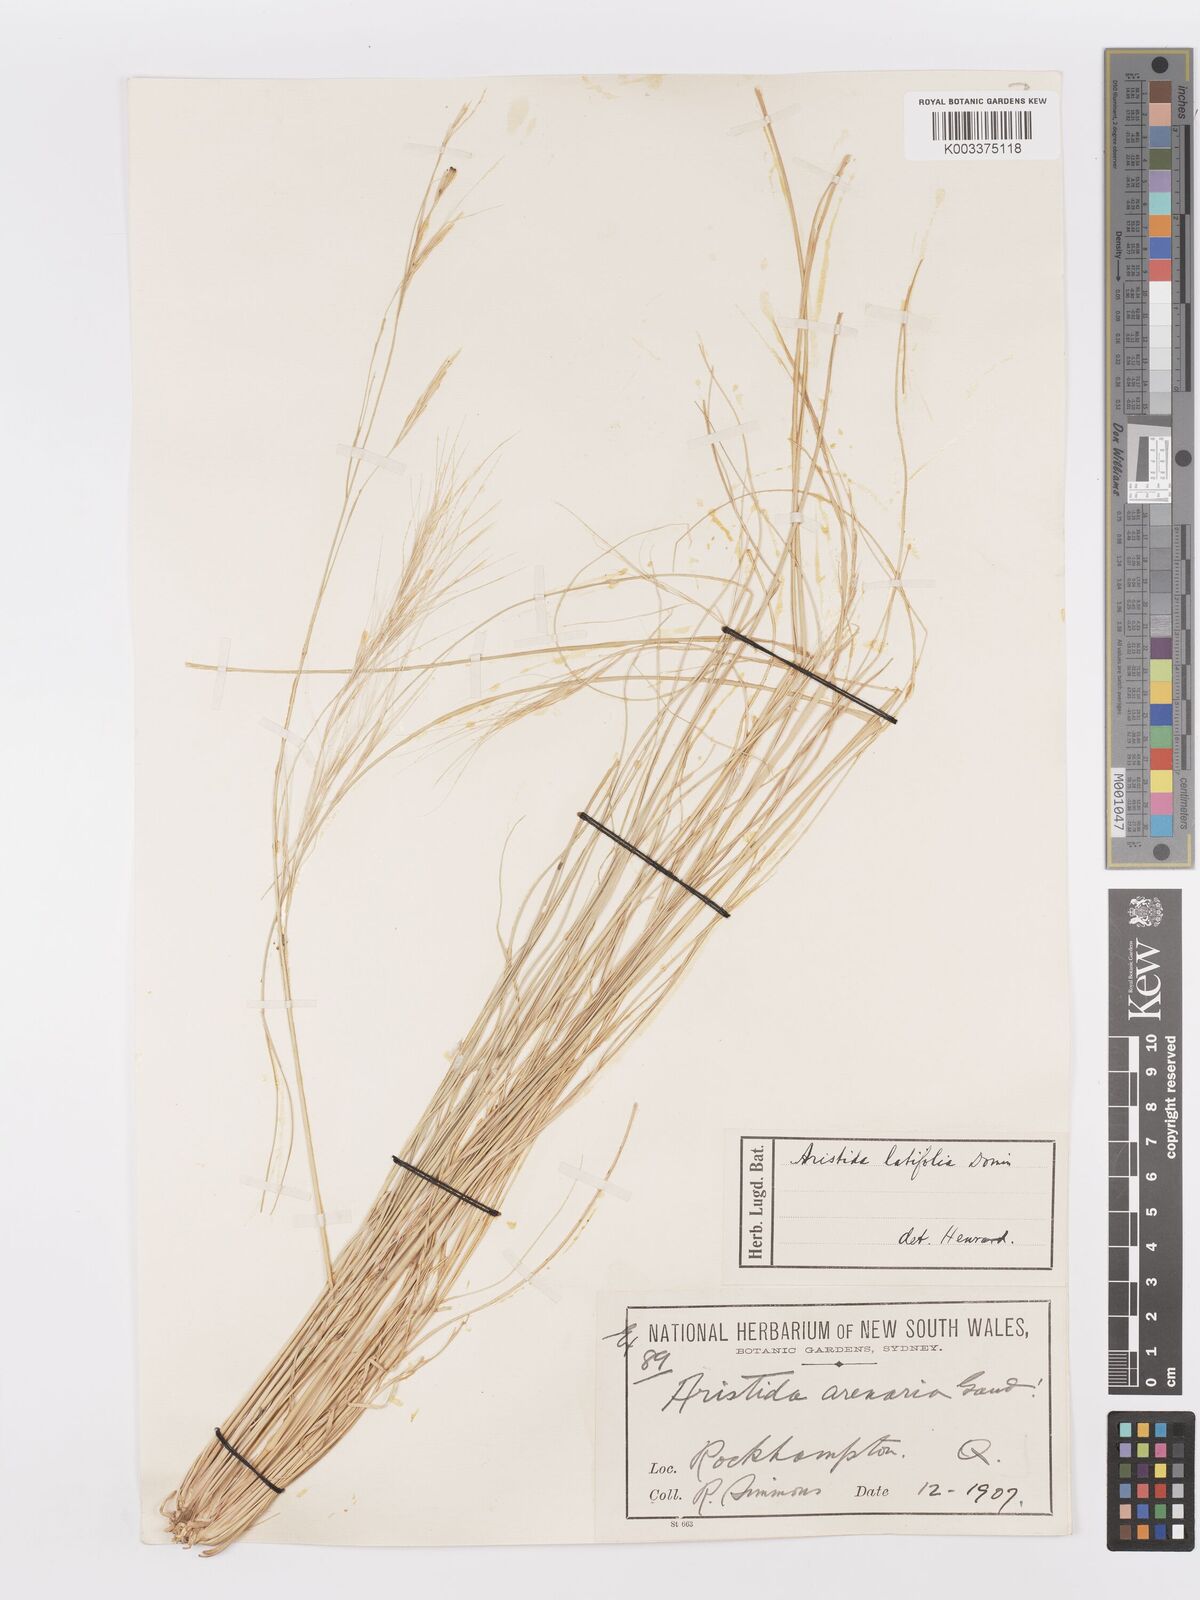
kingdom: Plantae
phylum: Tracheophyta
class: Liliopsida
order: Poales
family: Poaceae
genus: Aristida
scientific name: Aristida latifolia
